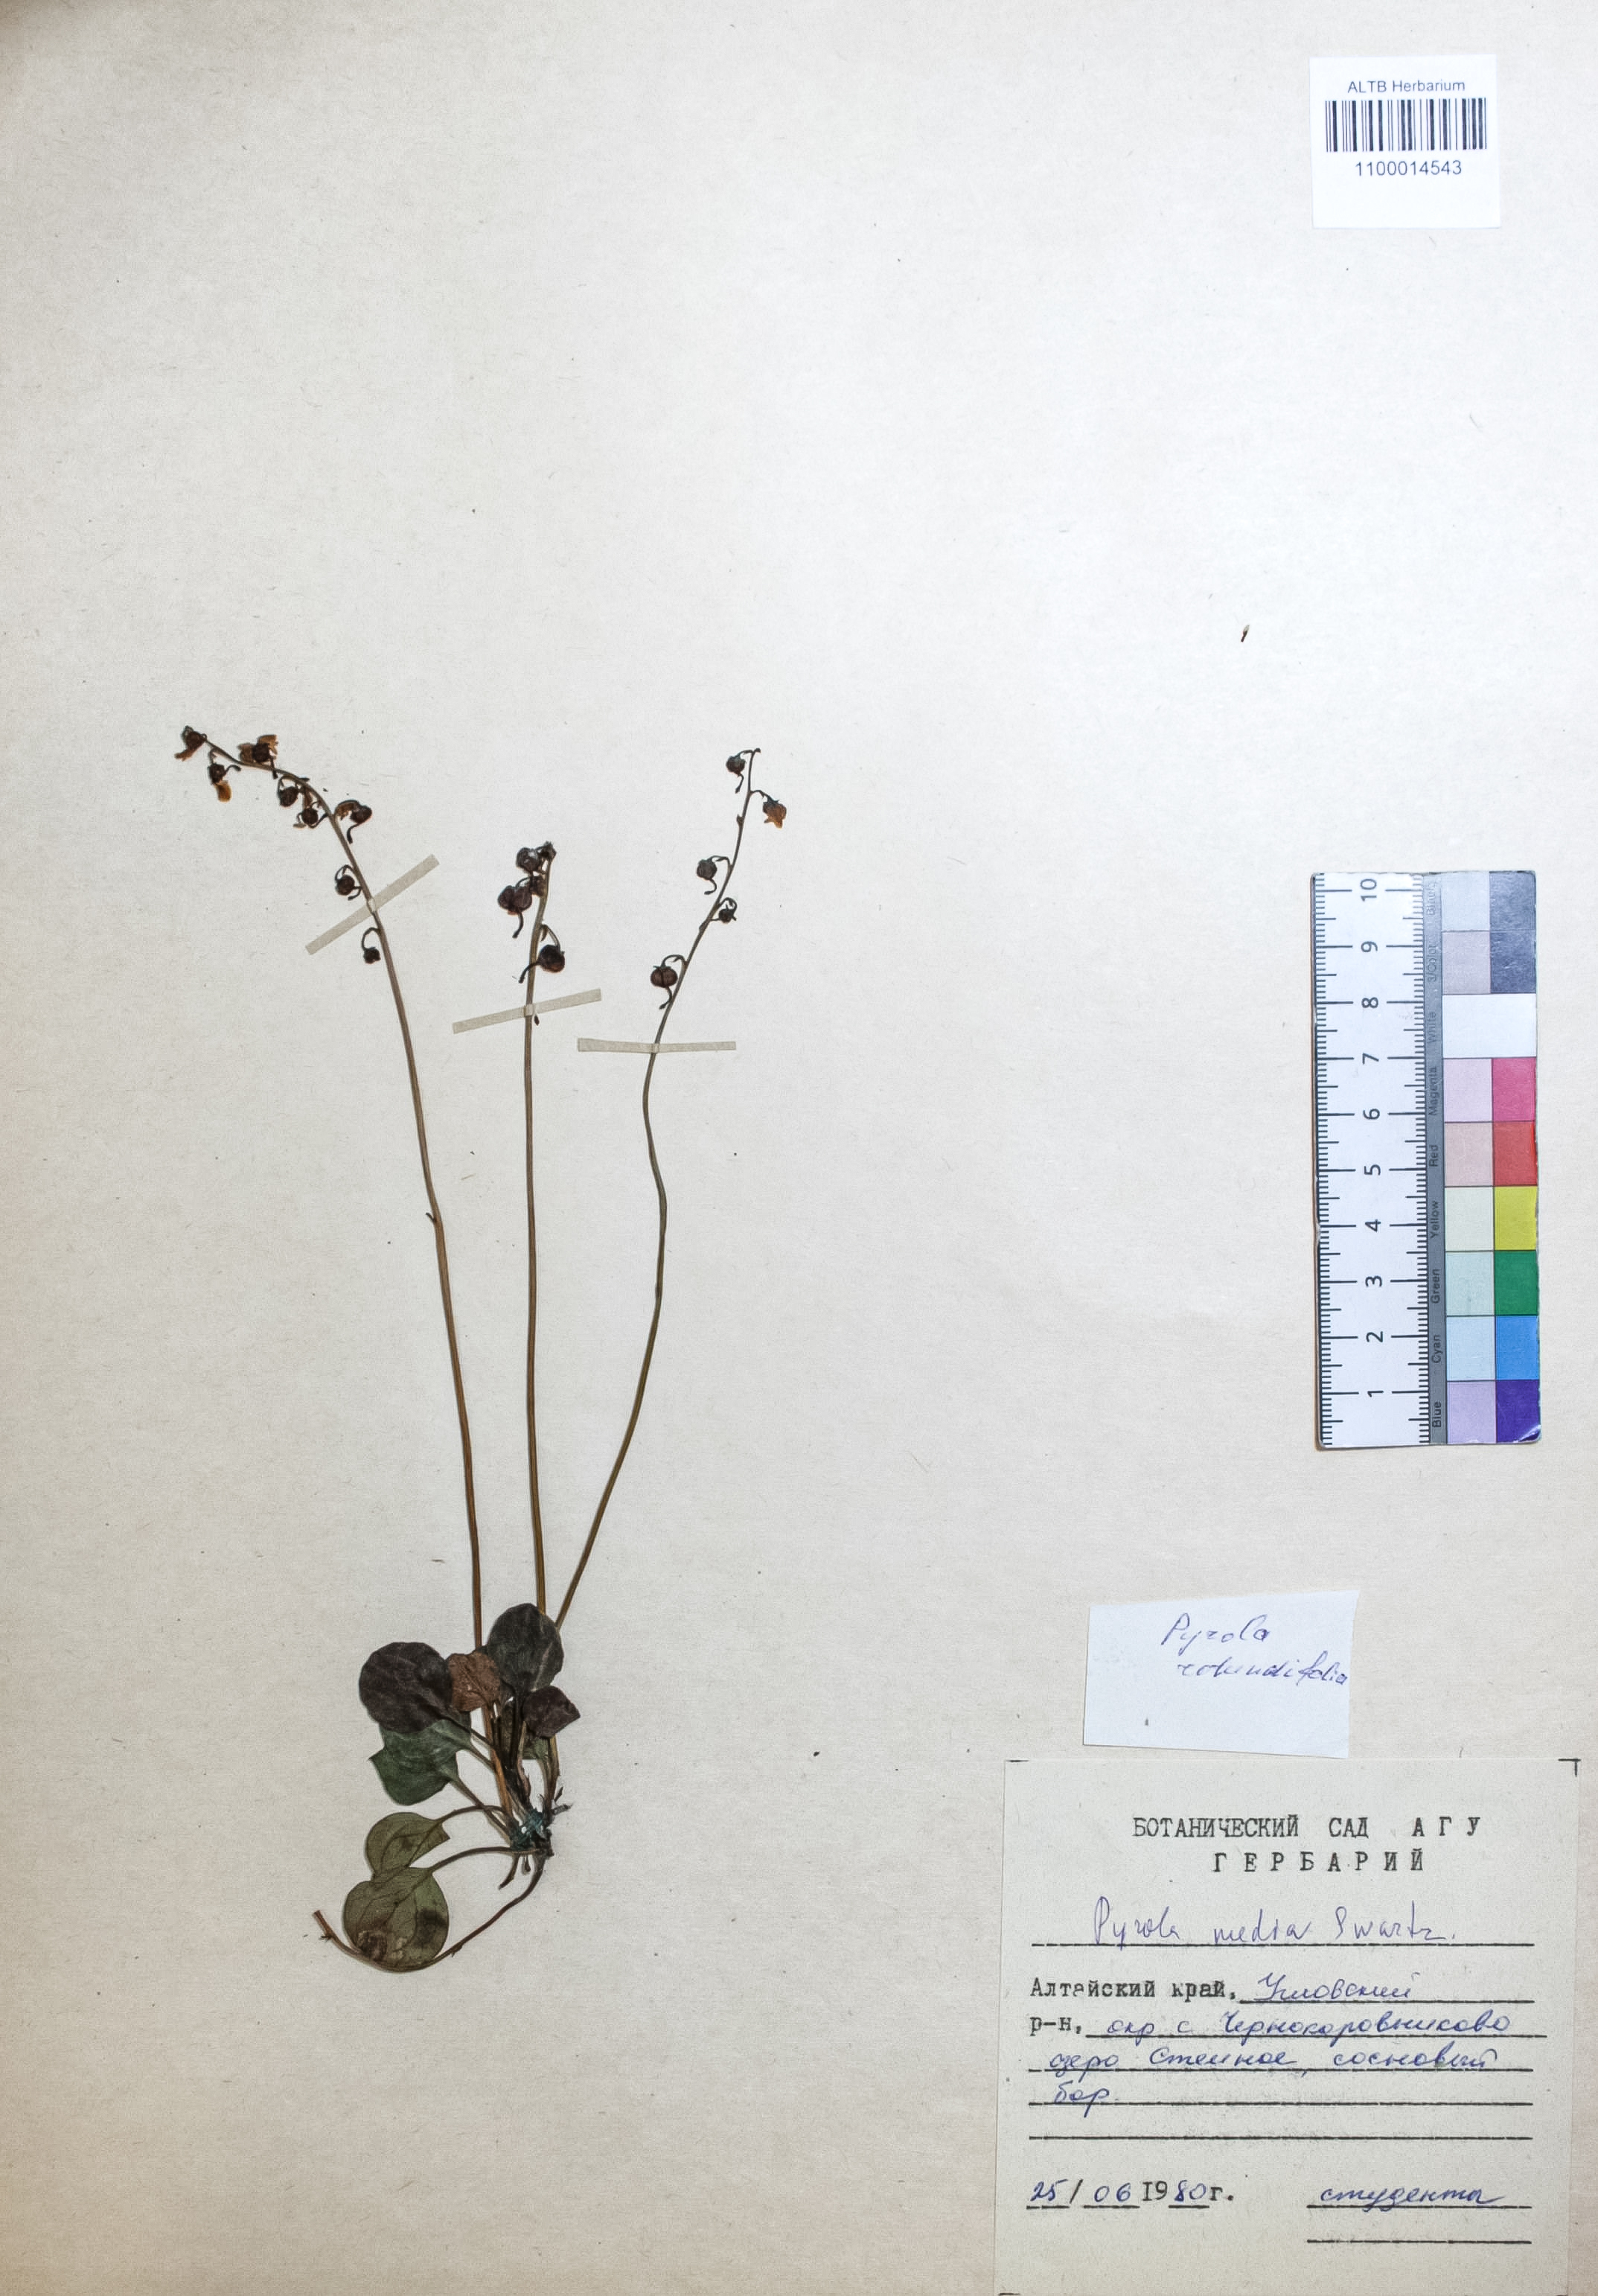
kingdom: Plantae
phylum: Tracheophyta
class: Magnoliopsida
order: Ericales
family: Ericaceae
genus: Pyrola
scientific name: Pyrola media
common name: Intermediate wintergreen
